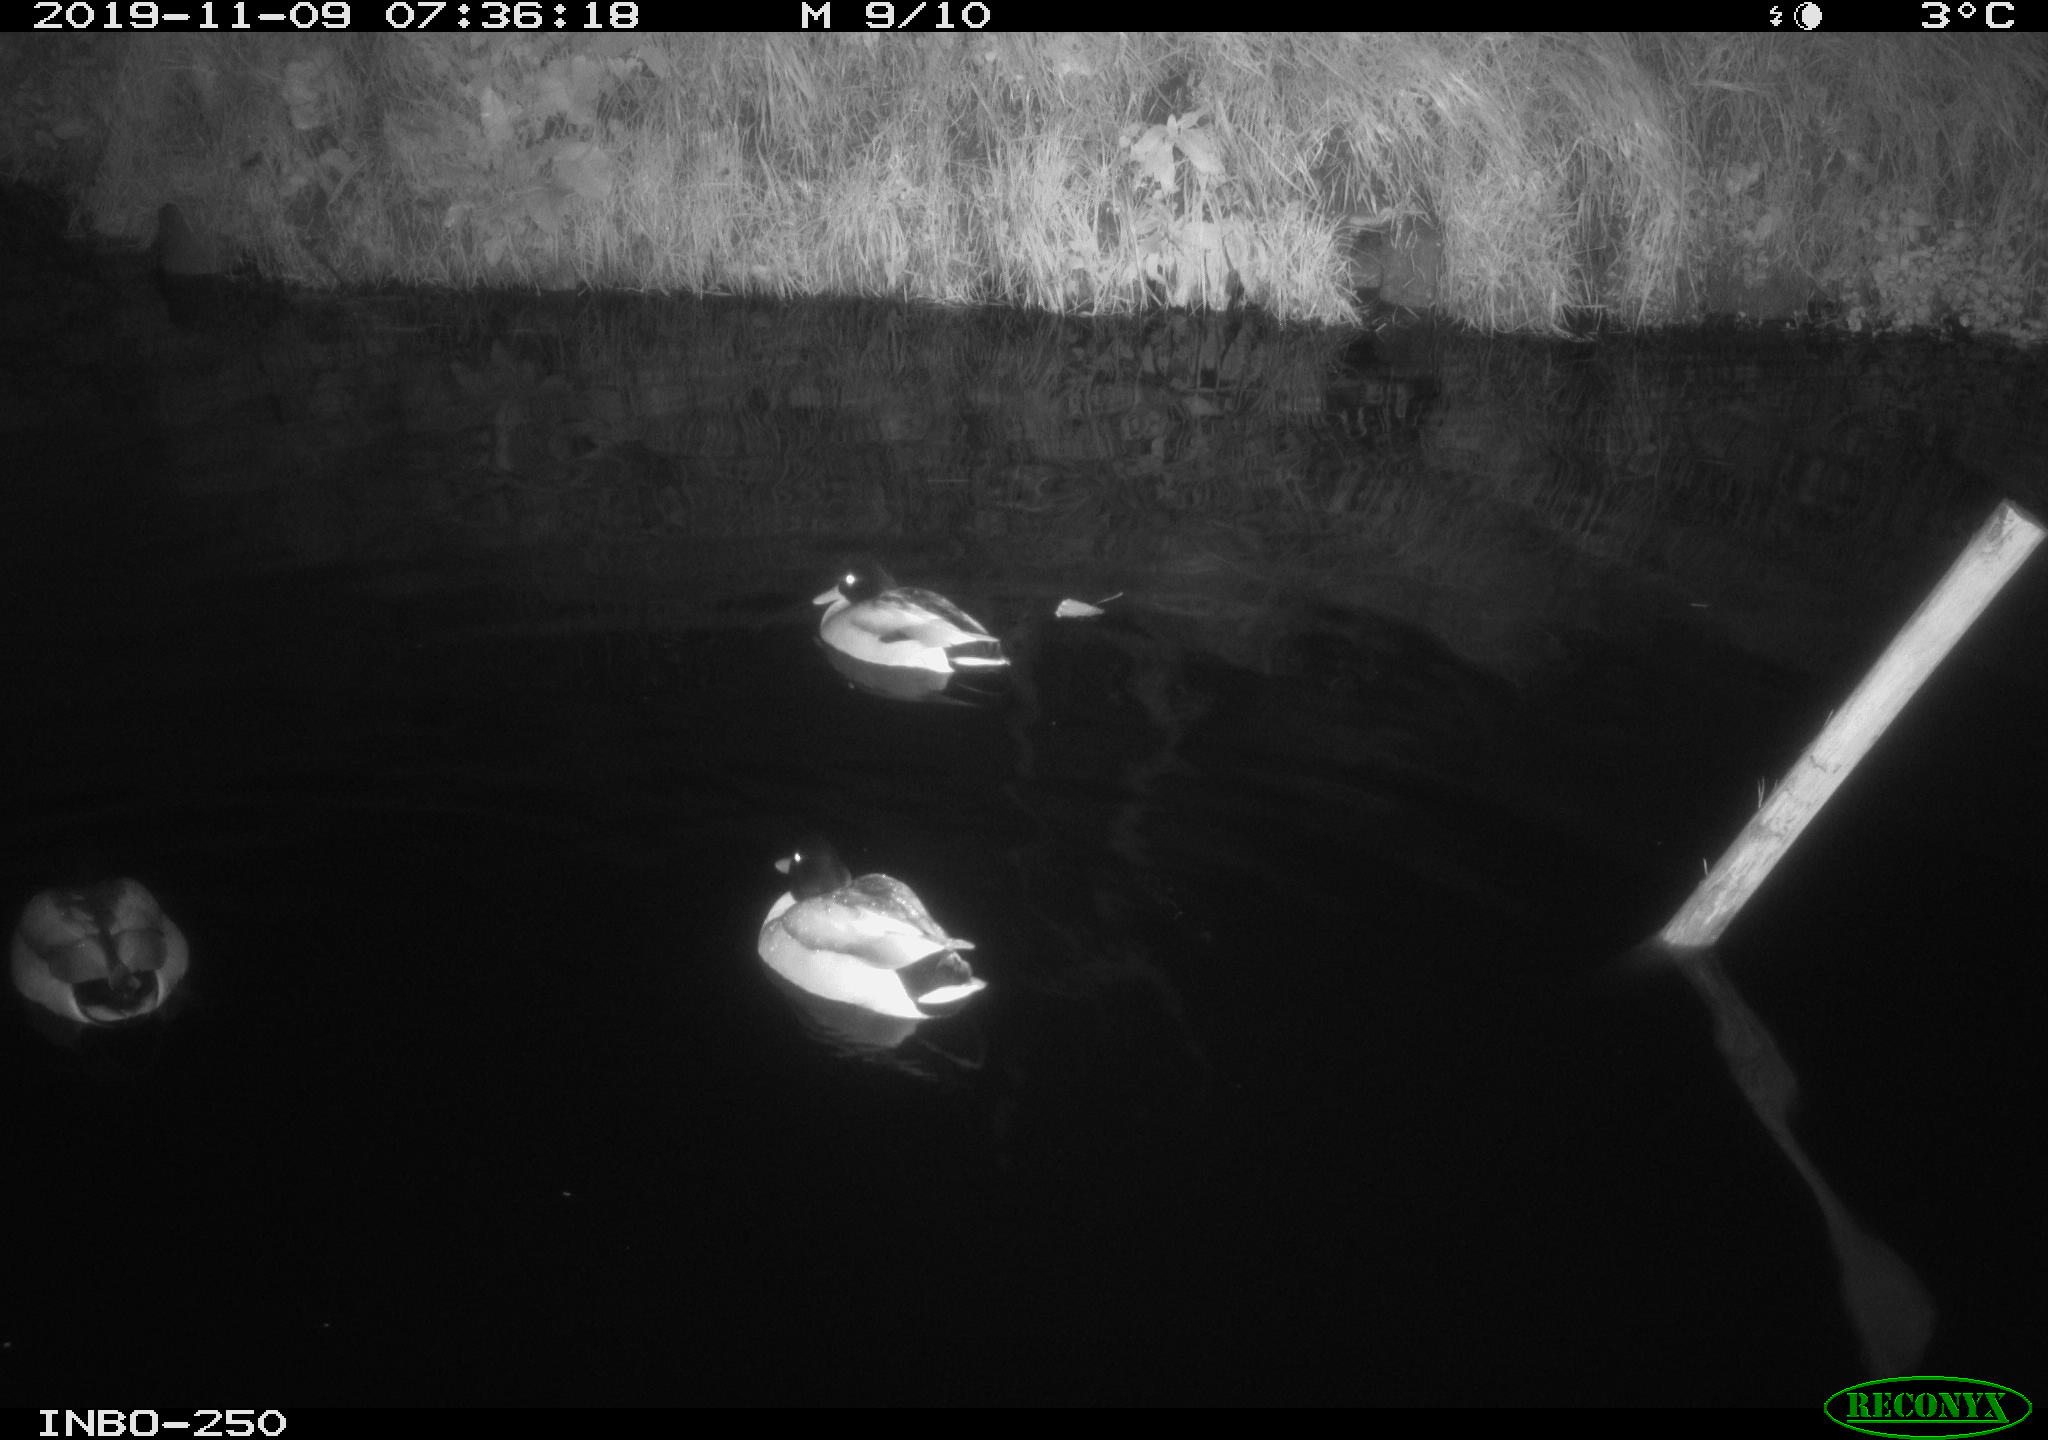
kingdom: Animalia
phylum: Chordata
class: Aves
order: Anseriformes
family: Anatidae
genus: Anas
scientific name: Anas platyrhynchos
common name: Mallard
